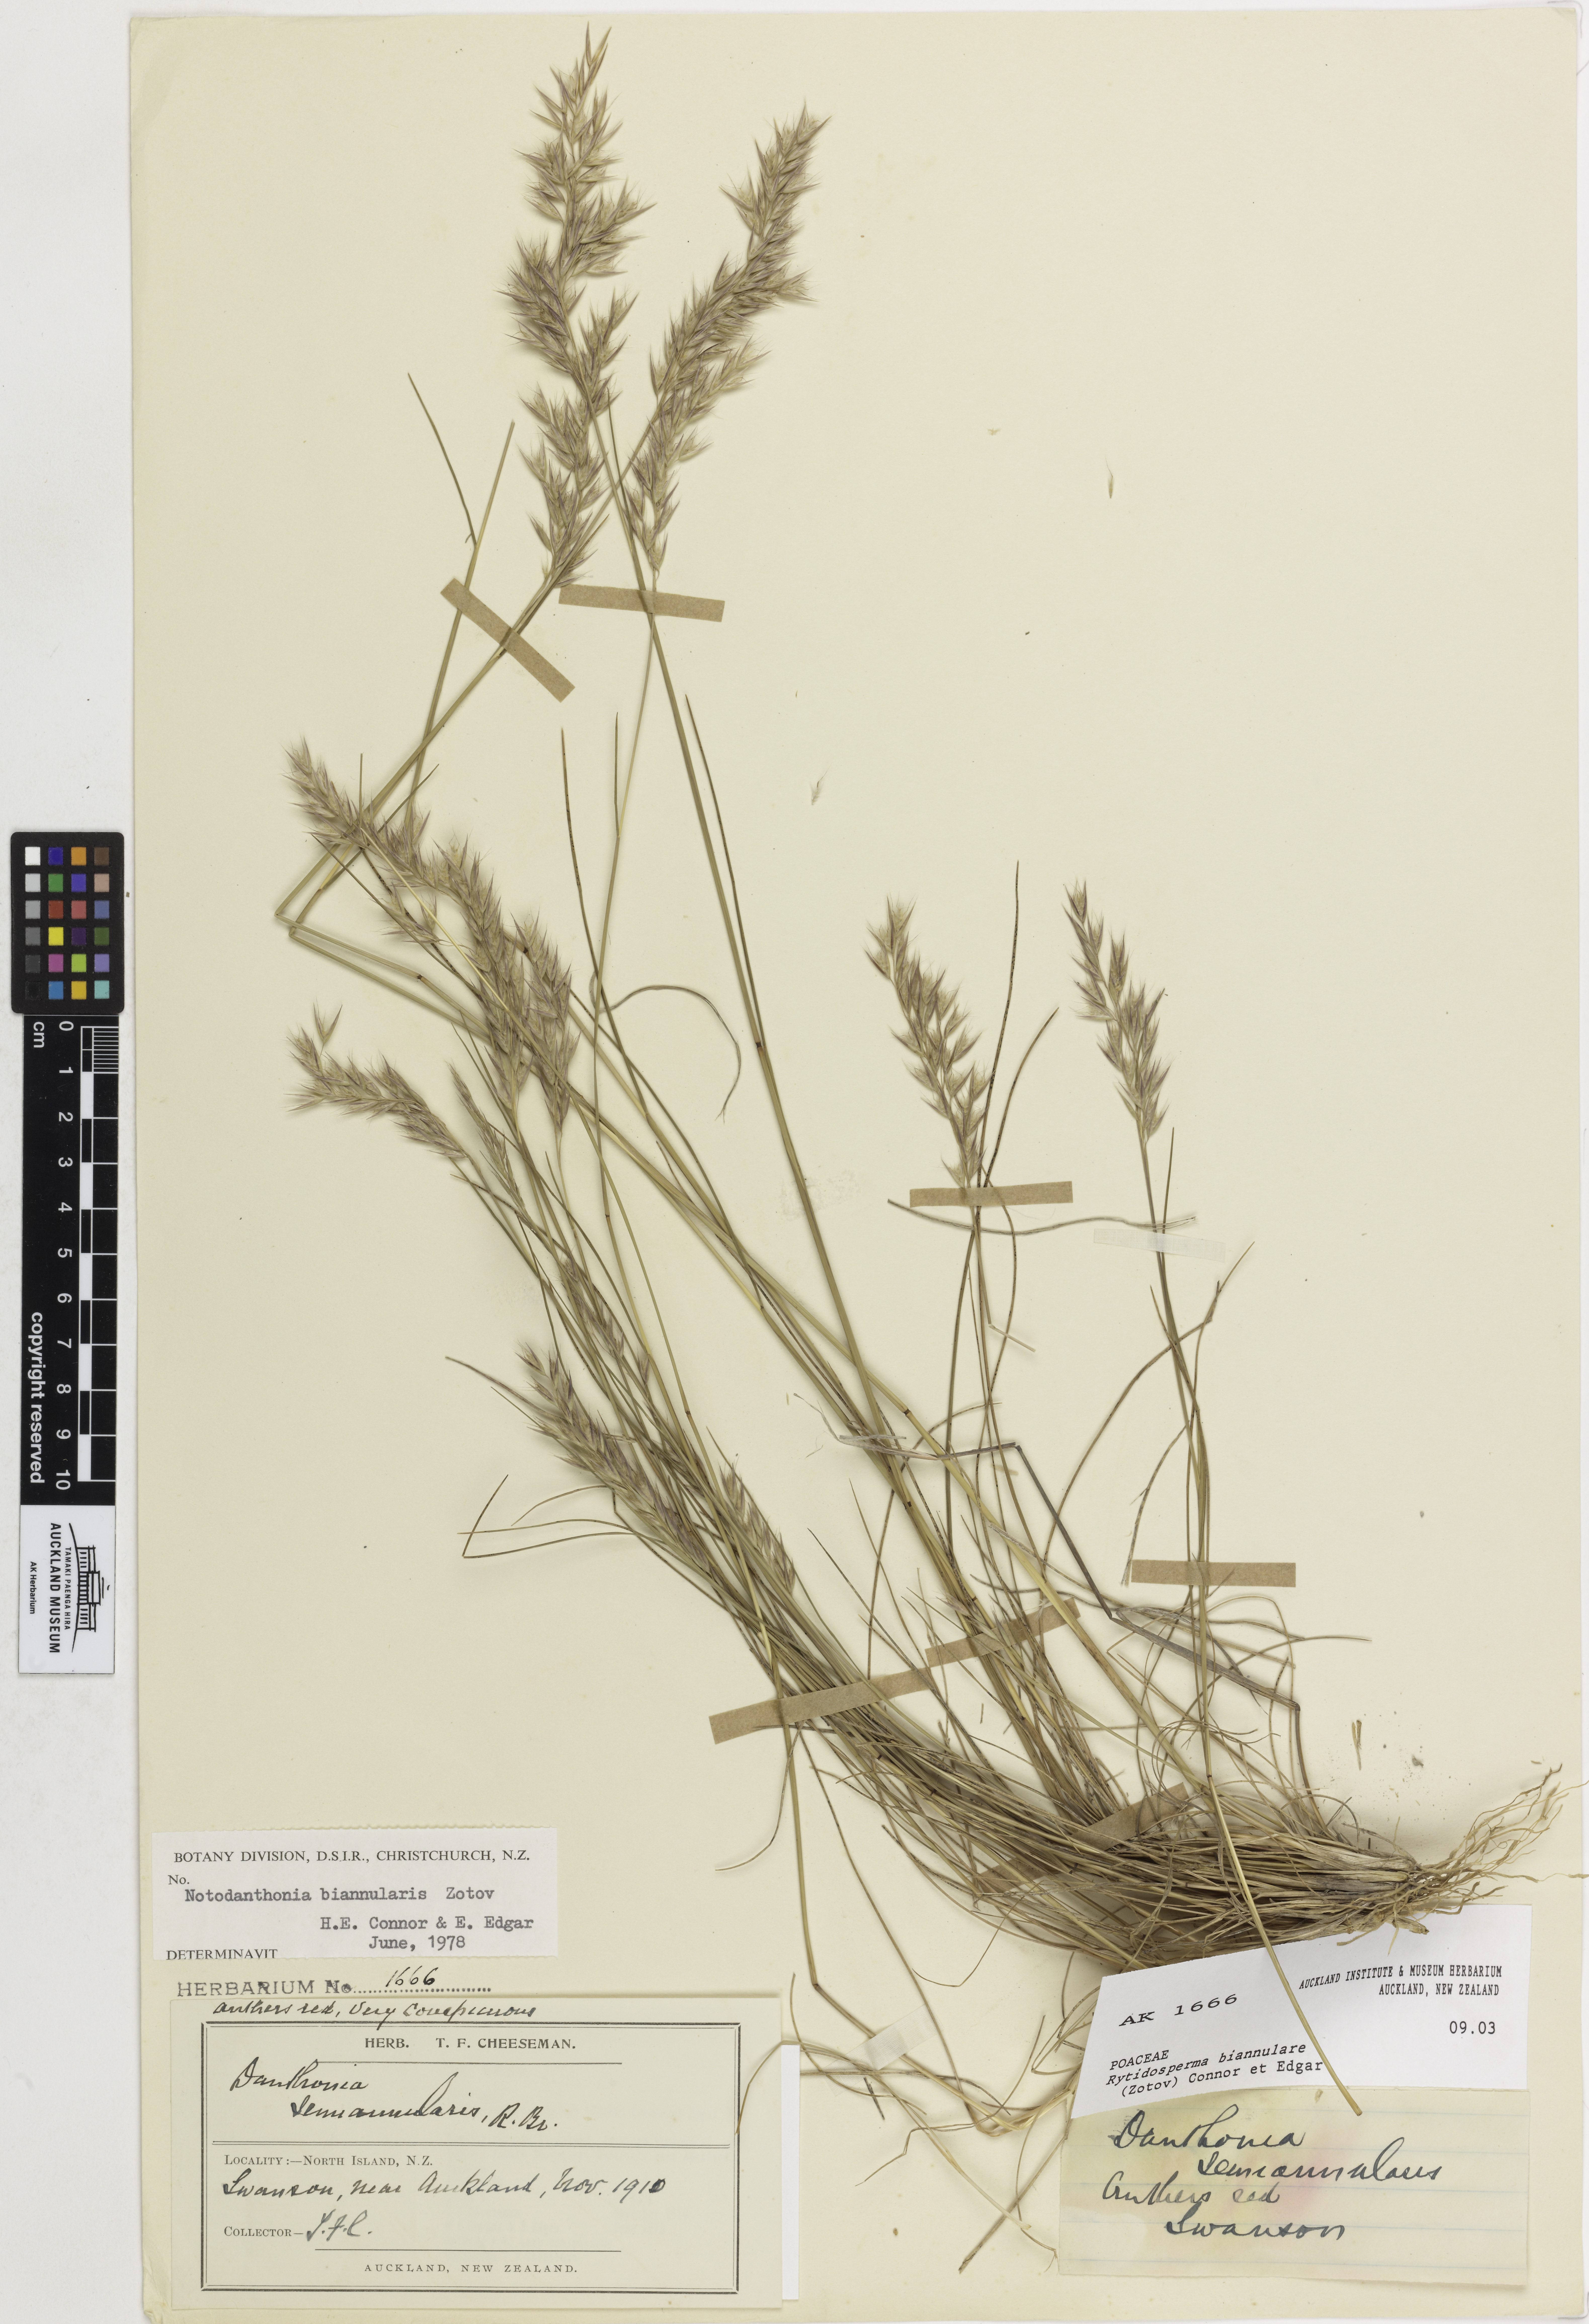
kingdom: Plantae
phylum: Tracheophyta
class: Liliopsida
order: Poales
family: Poaceae
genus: Rytidosperma
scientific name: Rytidosperma biannulare
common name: Wallaby grass
